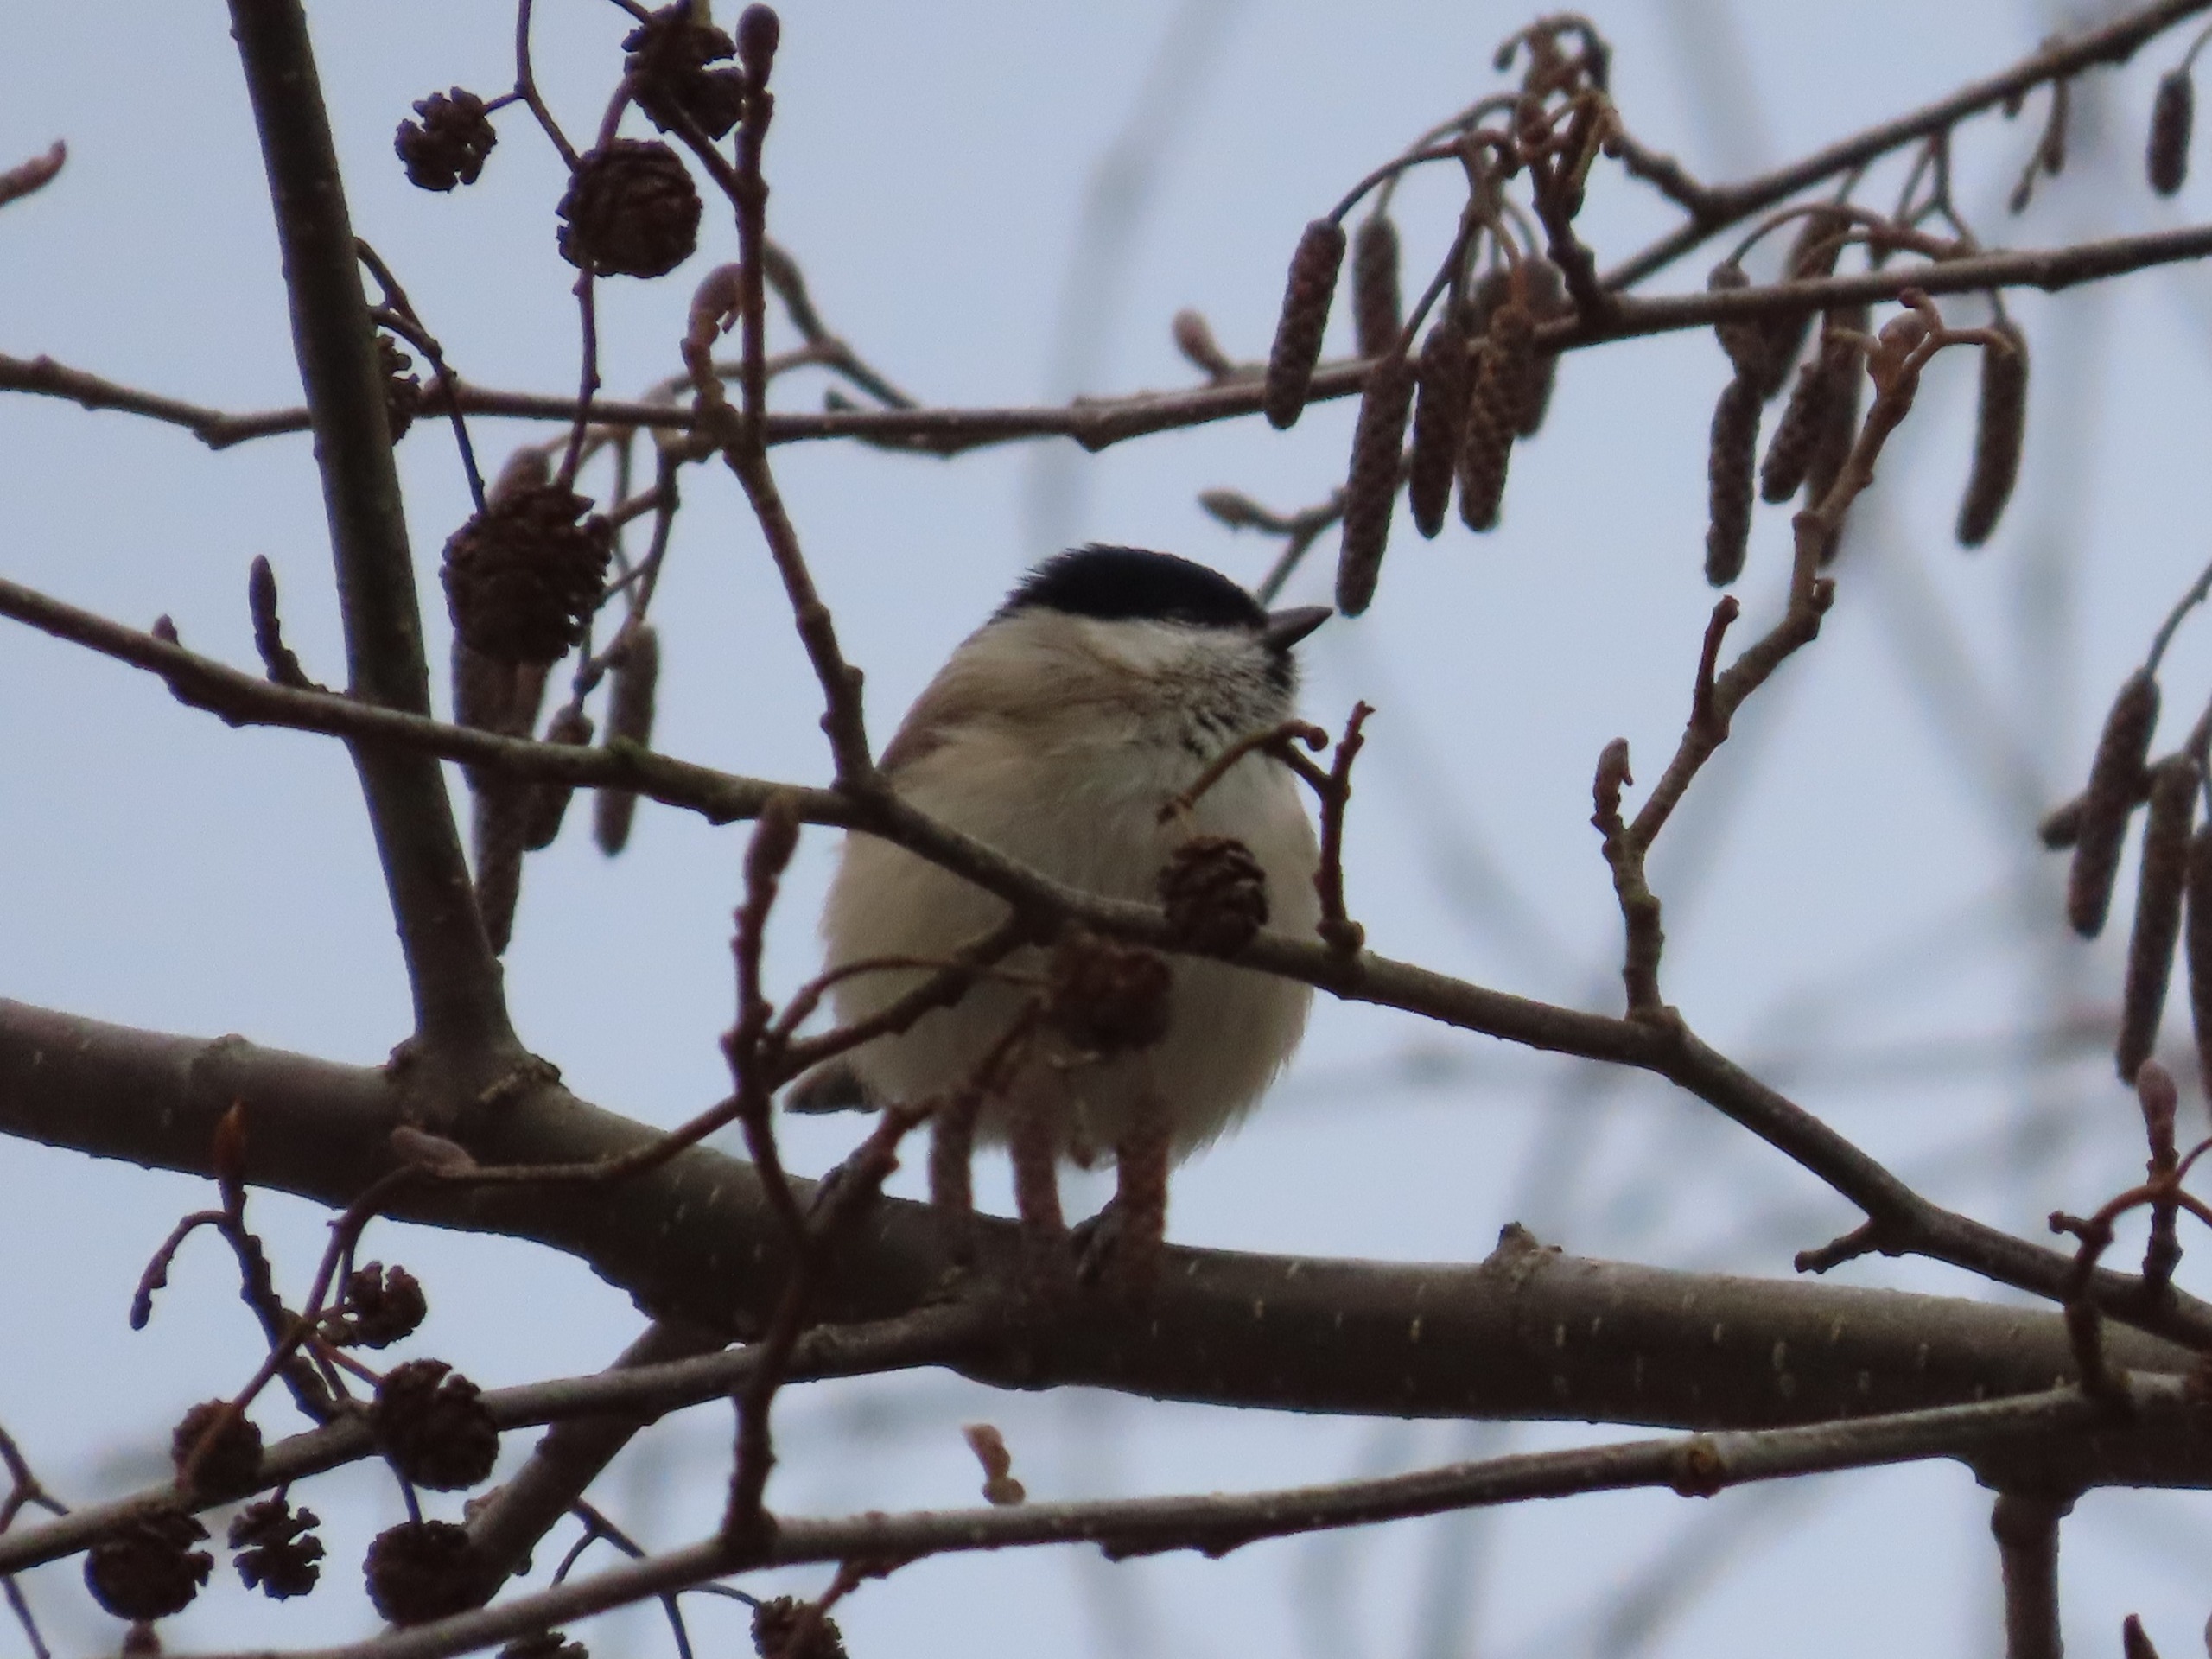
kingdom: Animalia
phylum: Chordata
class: Aves
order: Passeriformes
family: Paridae
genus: Poecile
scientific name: Poecile palustris
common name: Sumpmejse
